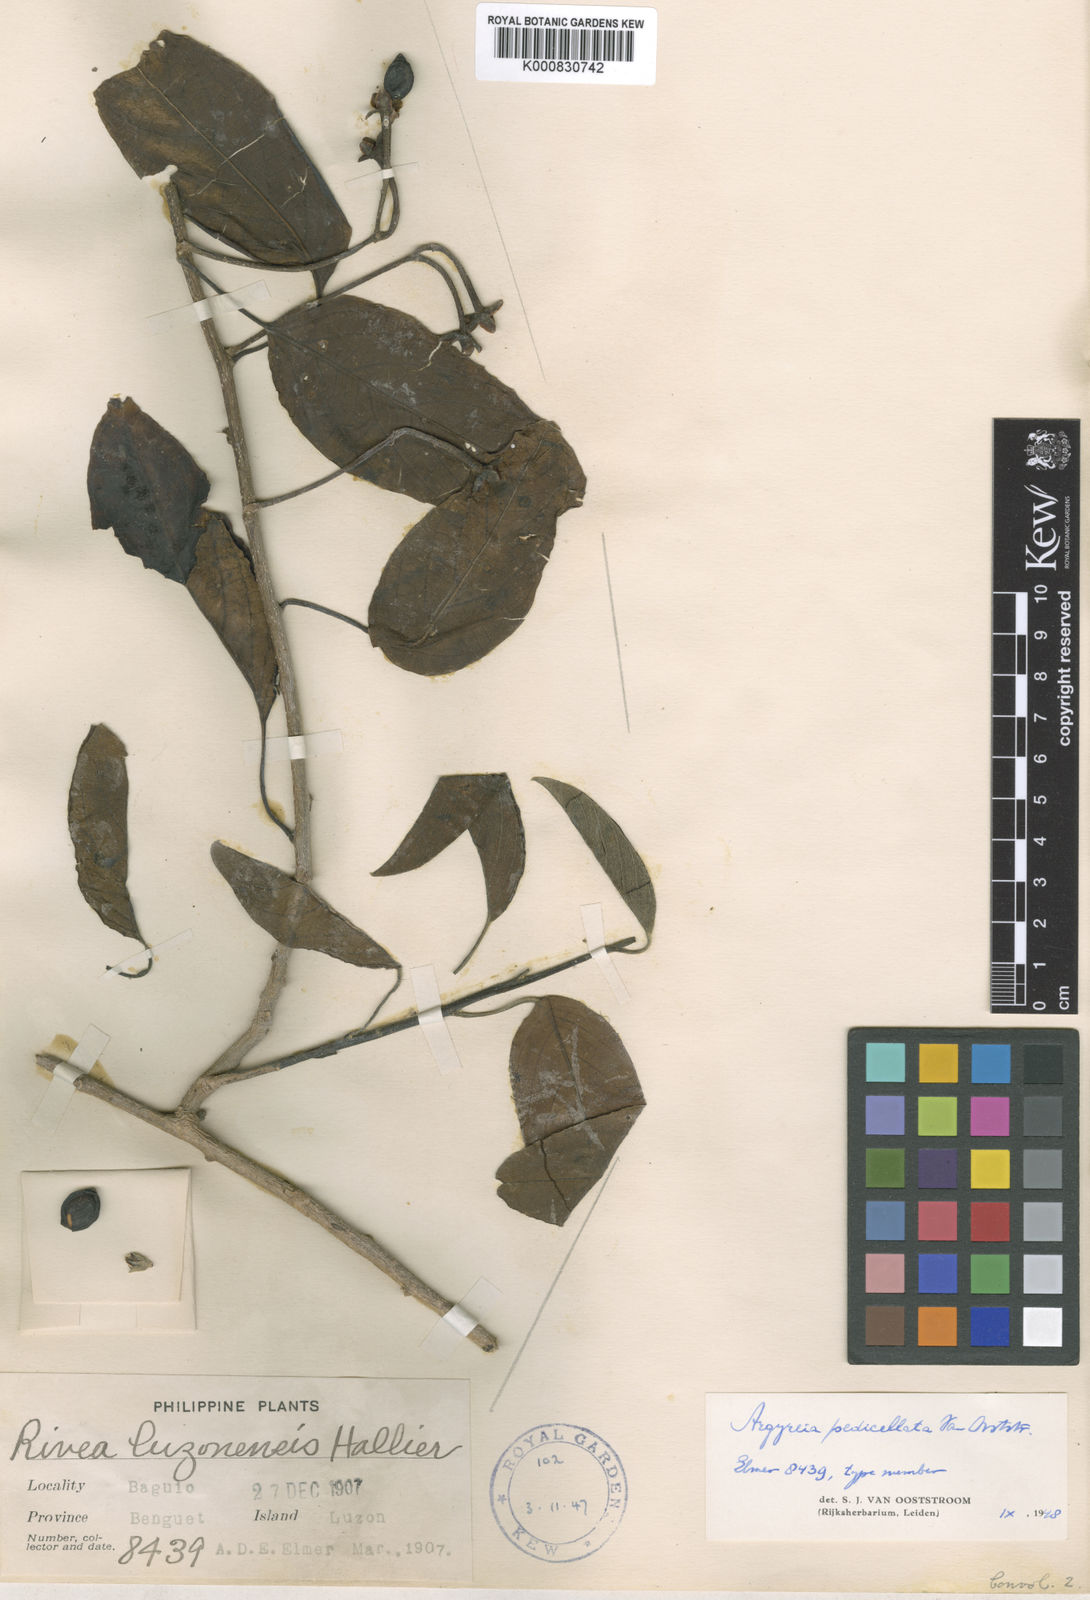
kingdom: Plantae
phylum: Tracheophyta
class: Magnoliopsida
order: Solanales
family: Convolvulaceae
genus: Argyreia
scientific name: Argyreia pedicellata
